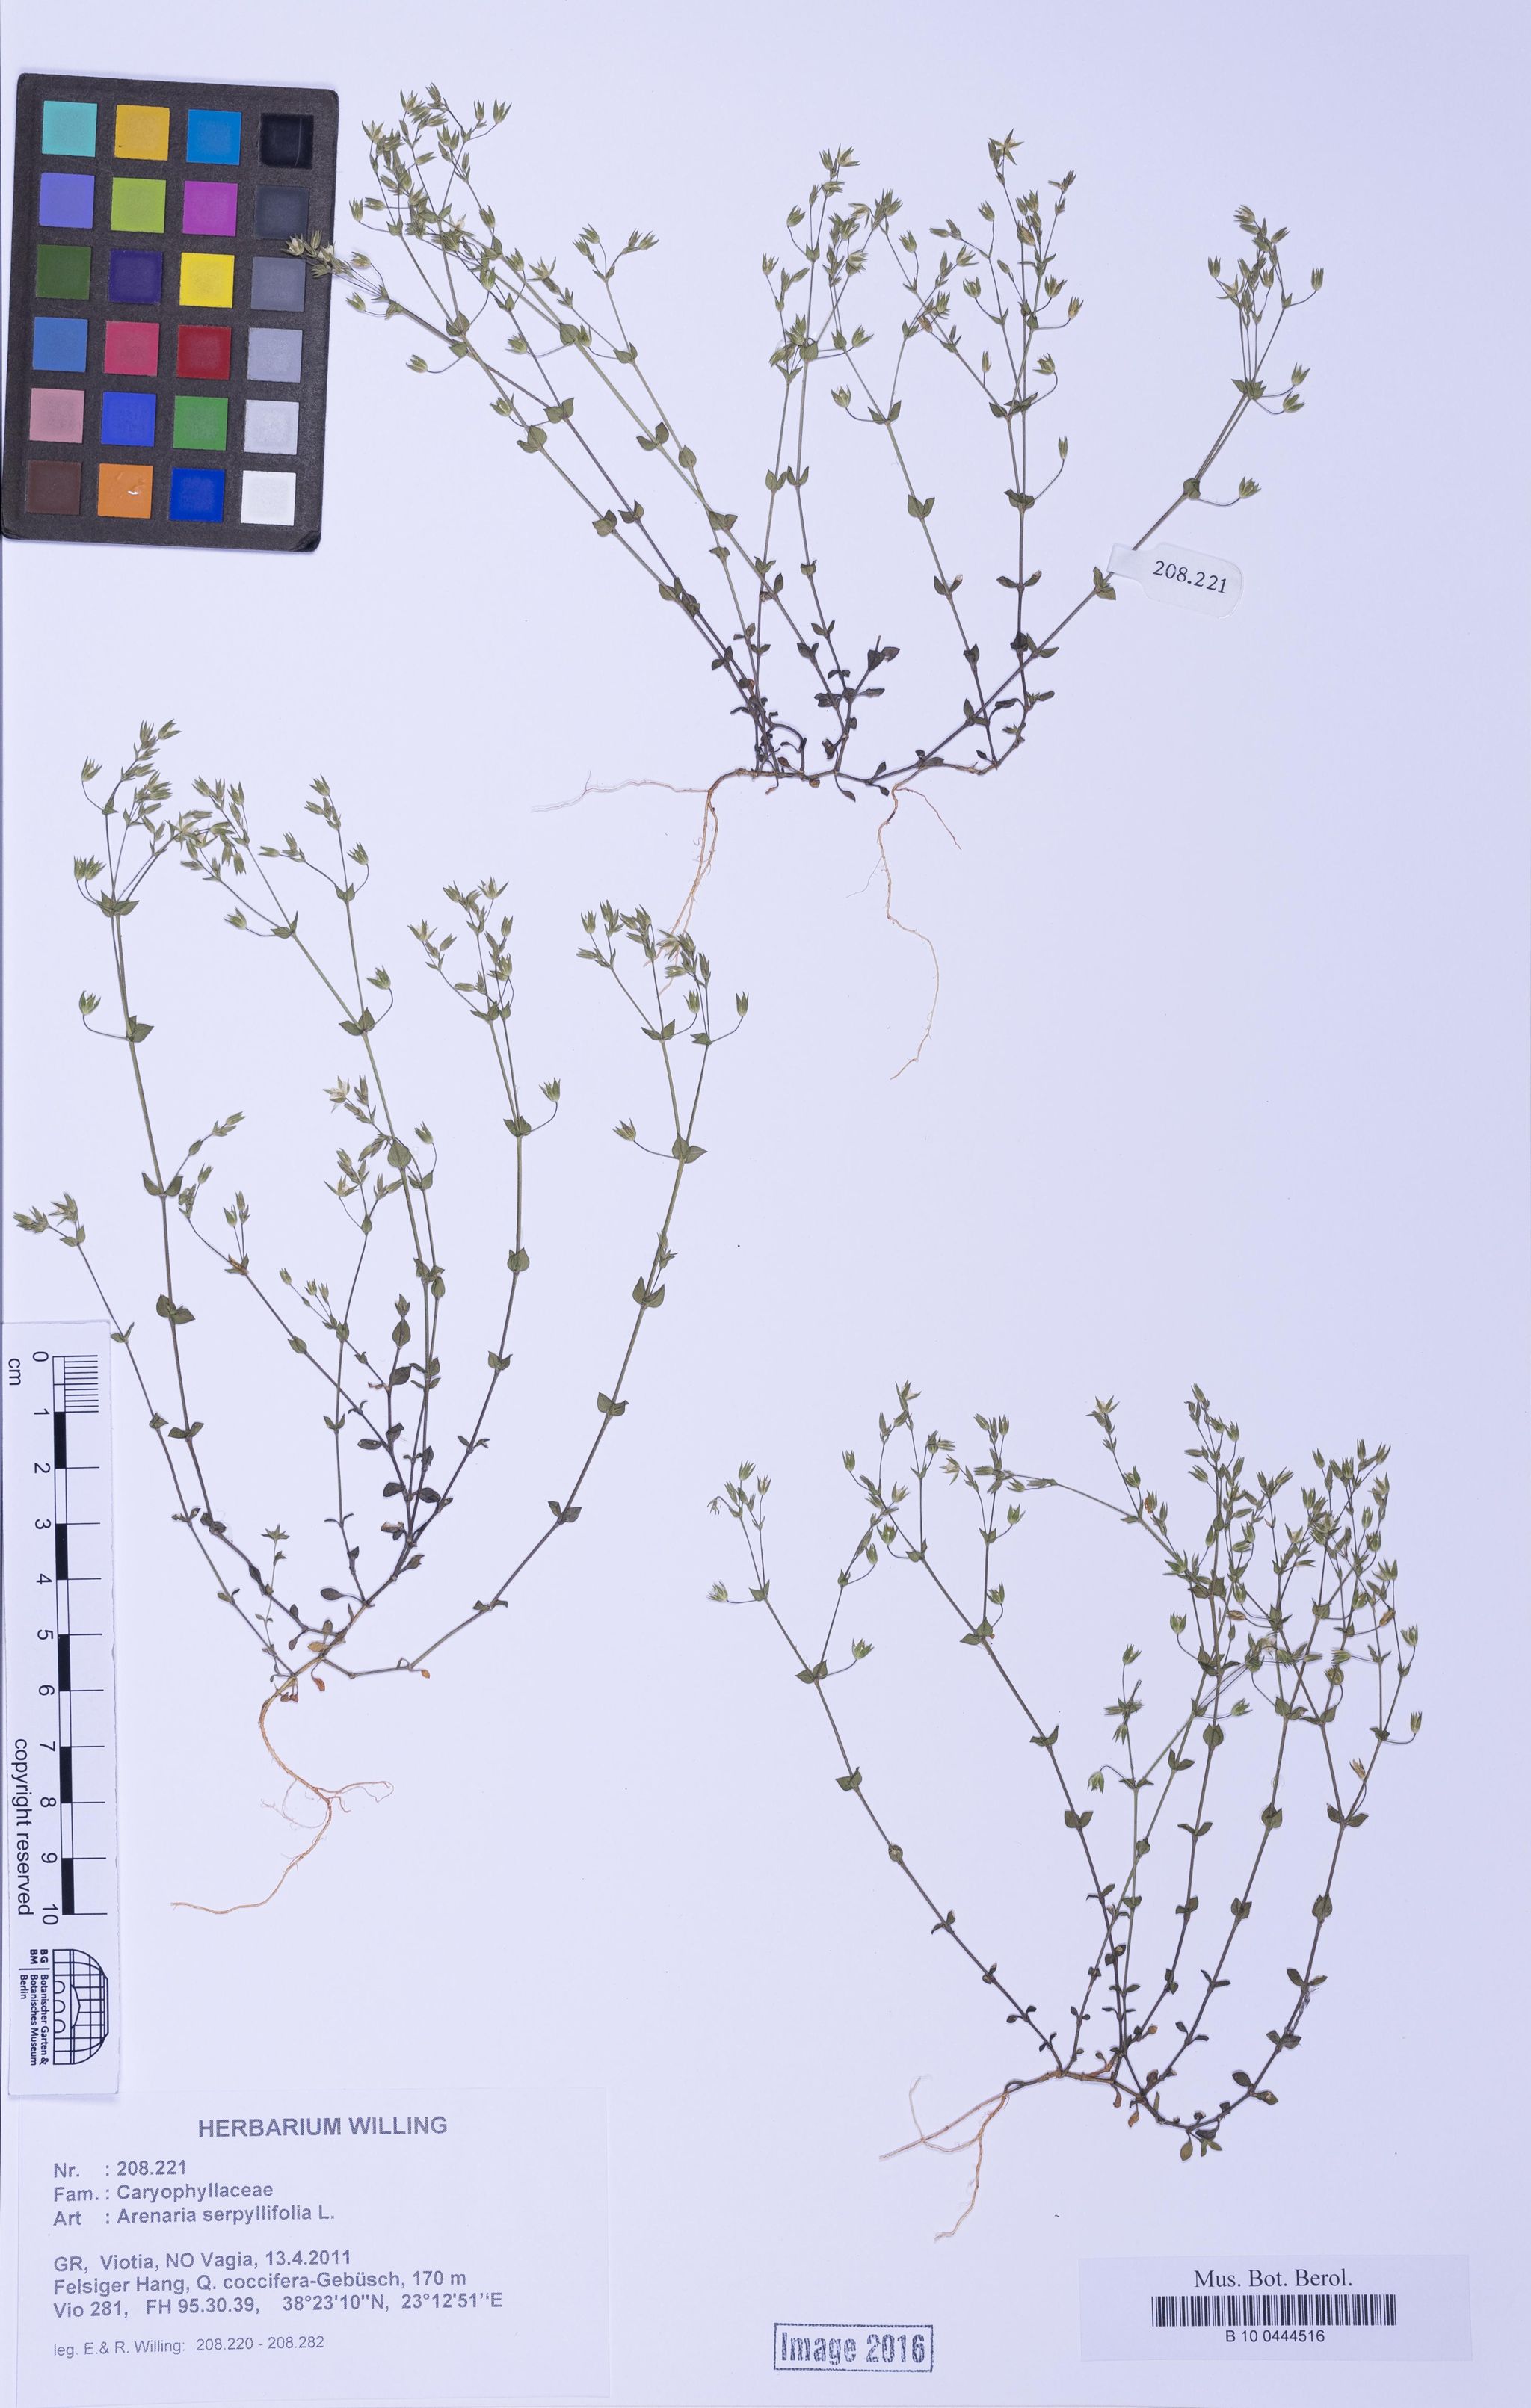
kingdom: Plantae
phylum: Tracheophyta
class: Magnoliopsida
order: Caryophyllales
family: Caryophyllaceae
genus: Arenaria
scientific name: Arenaria serpyllifolia
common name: Thyme-leaved sandwort
